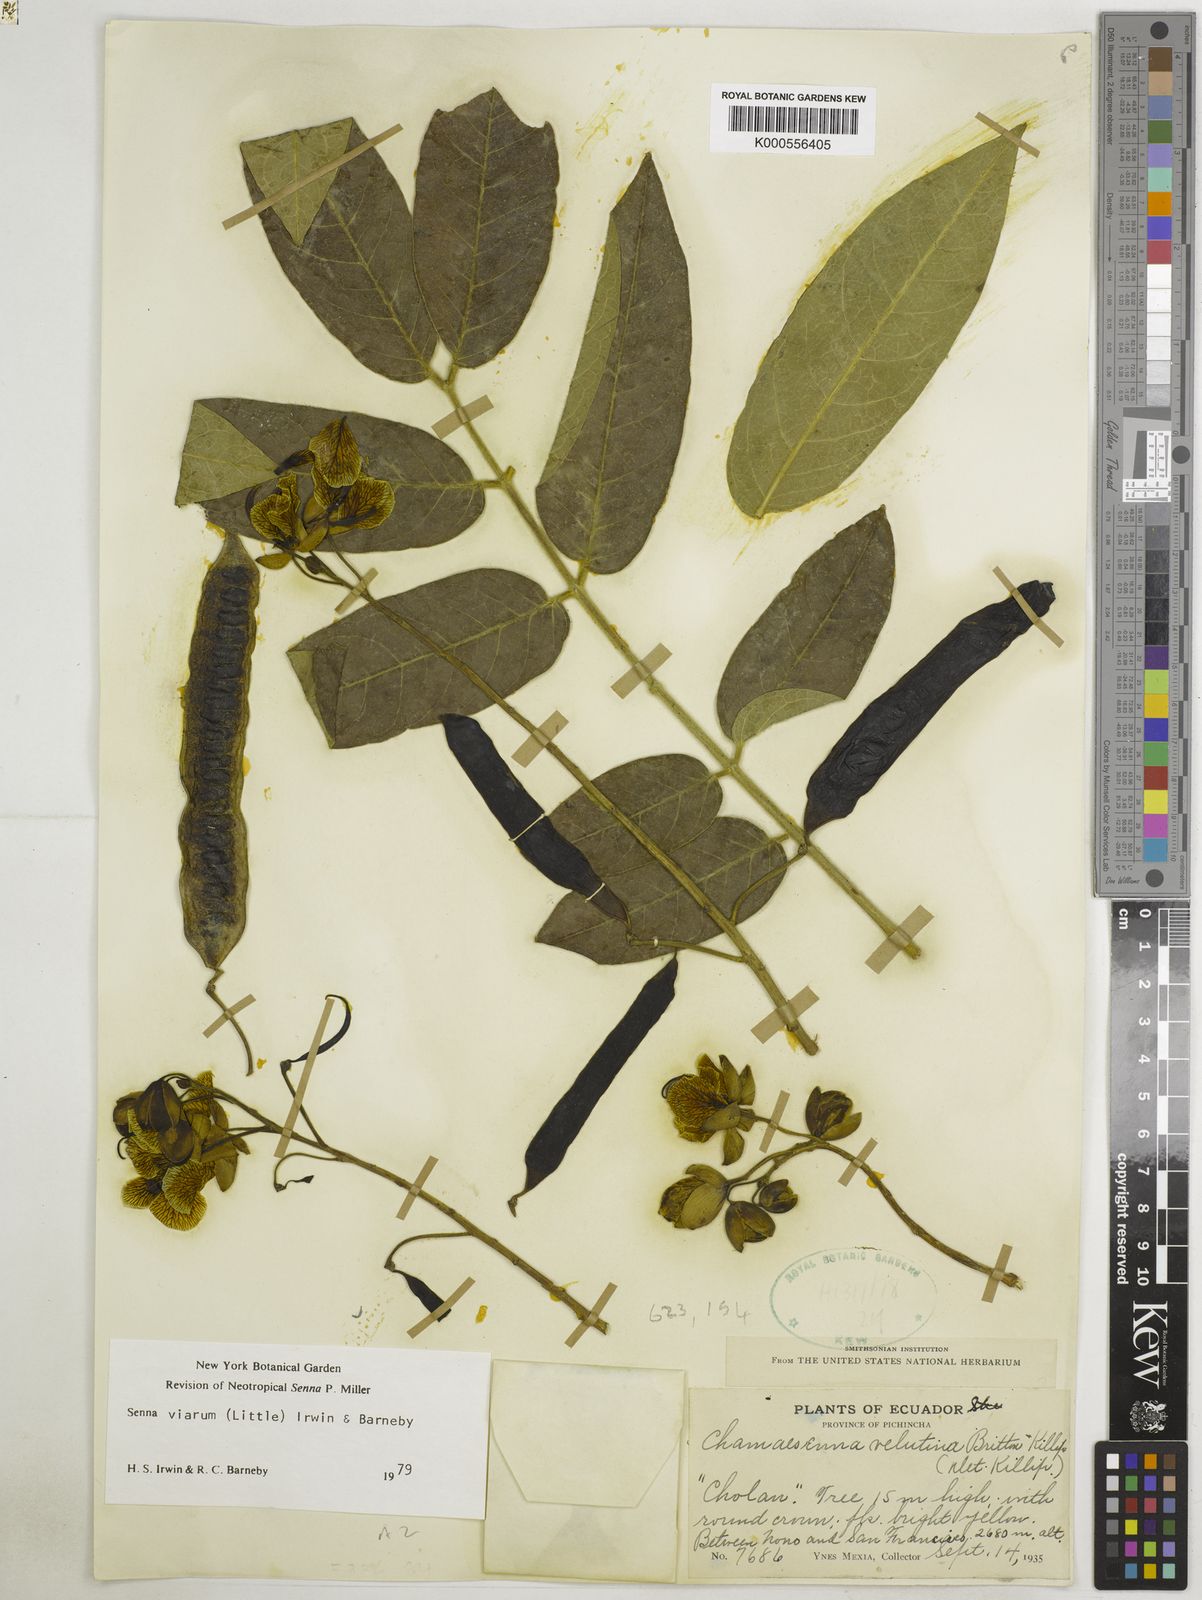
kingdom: Plantae
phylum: Tracheophyta
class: Magnoliopsida
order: Fabales
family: Fabaceae
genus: Senna
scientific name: Senna viarum
